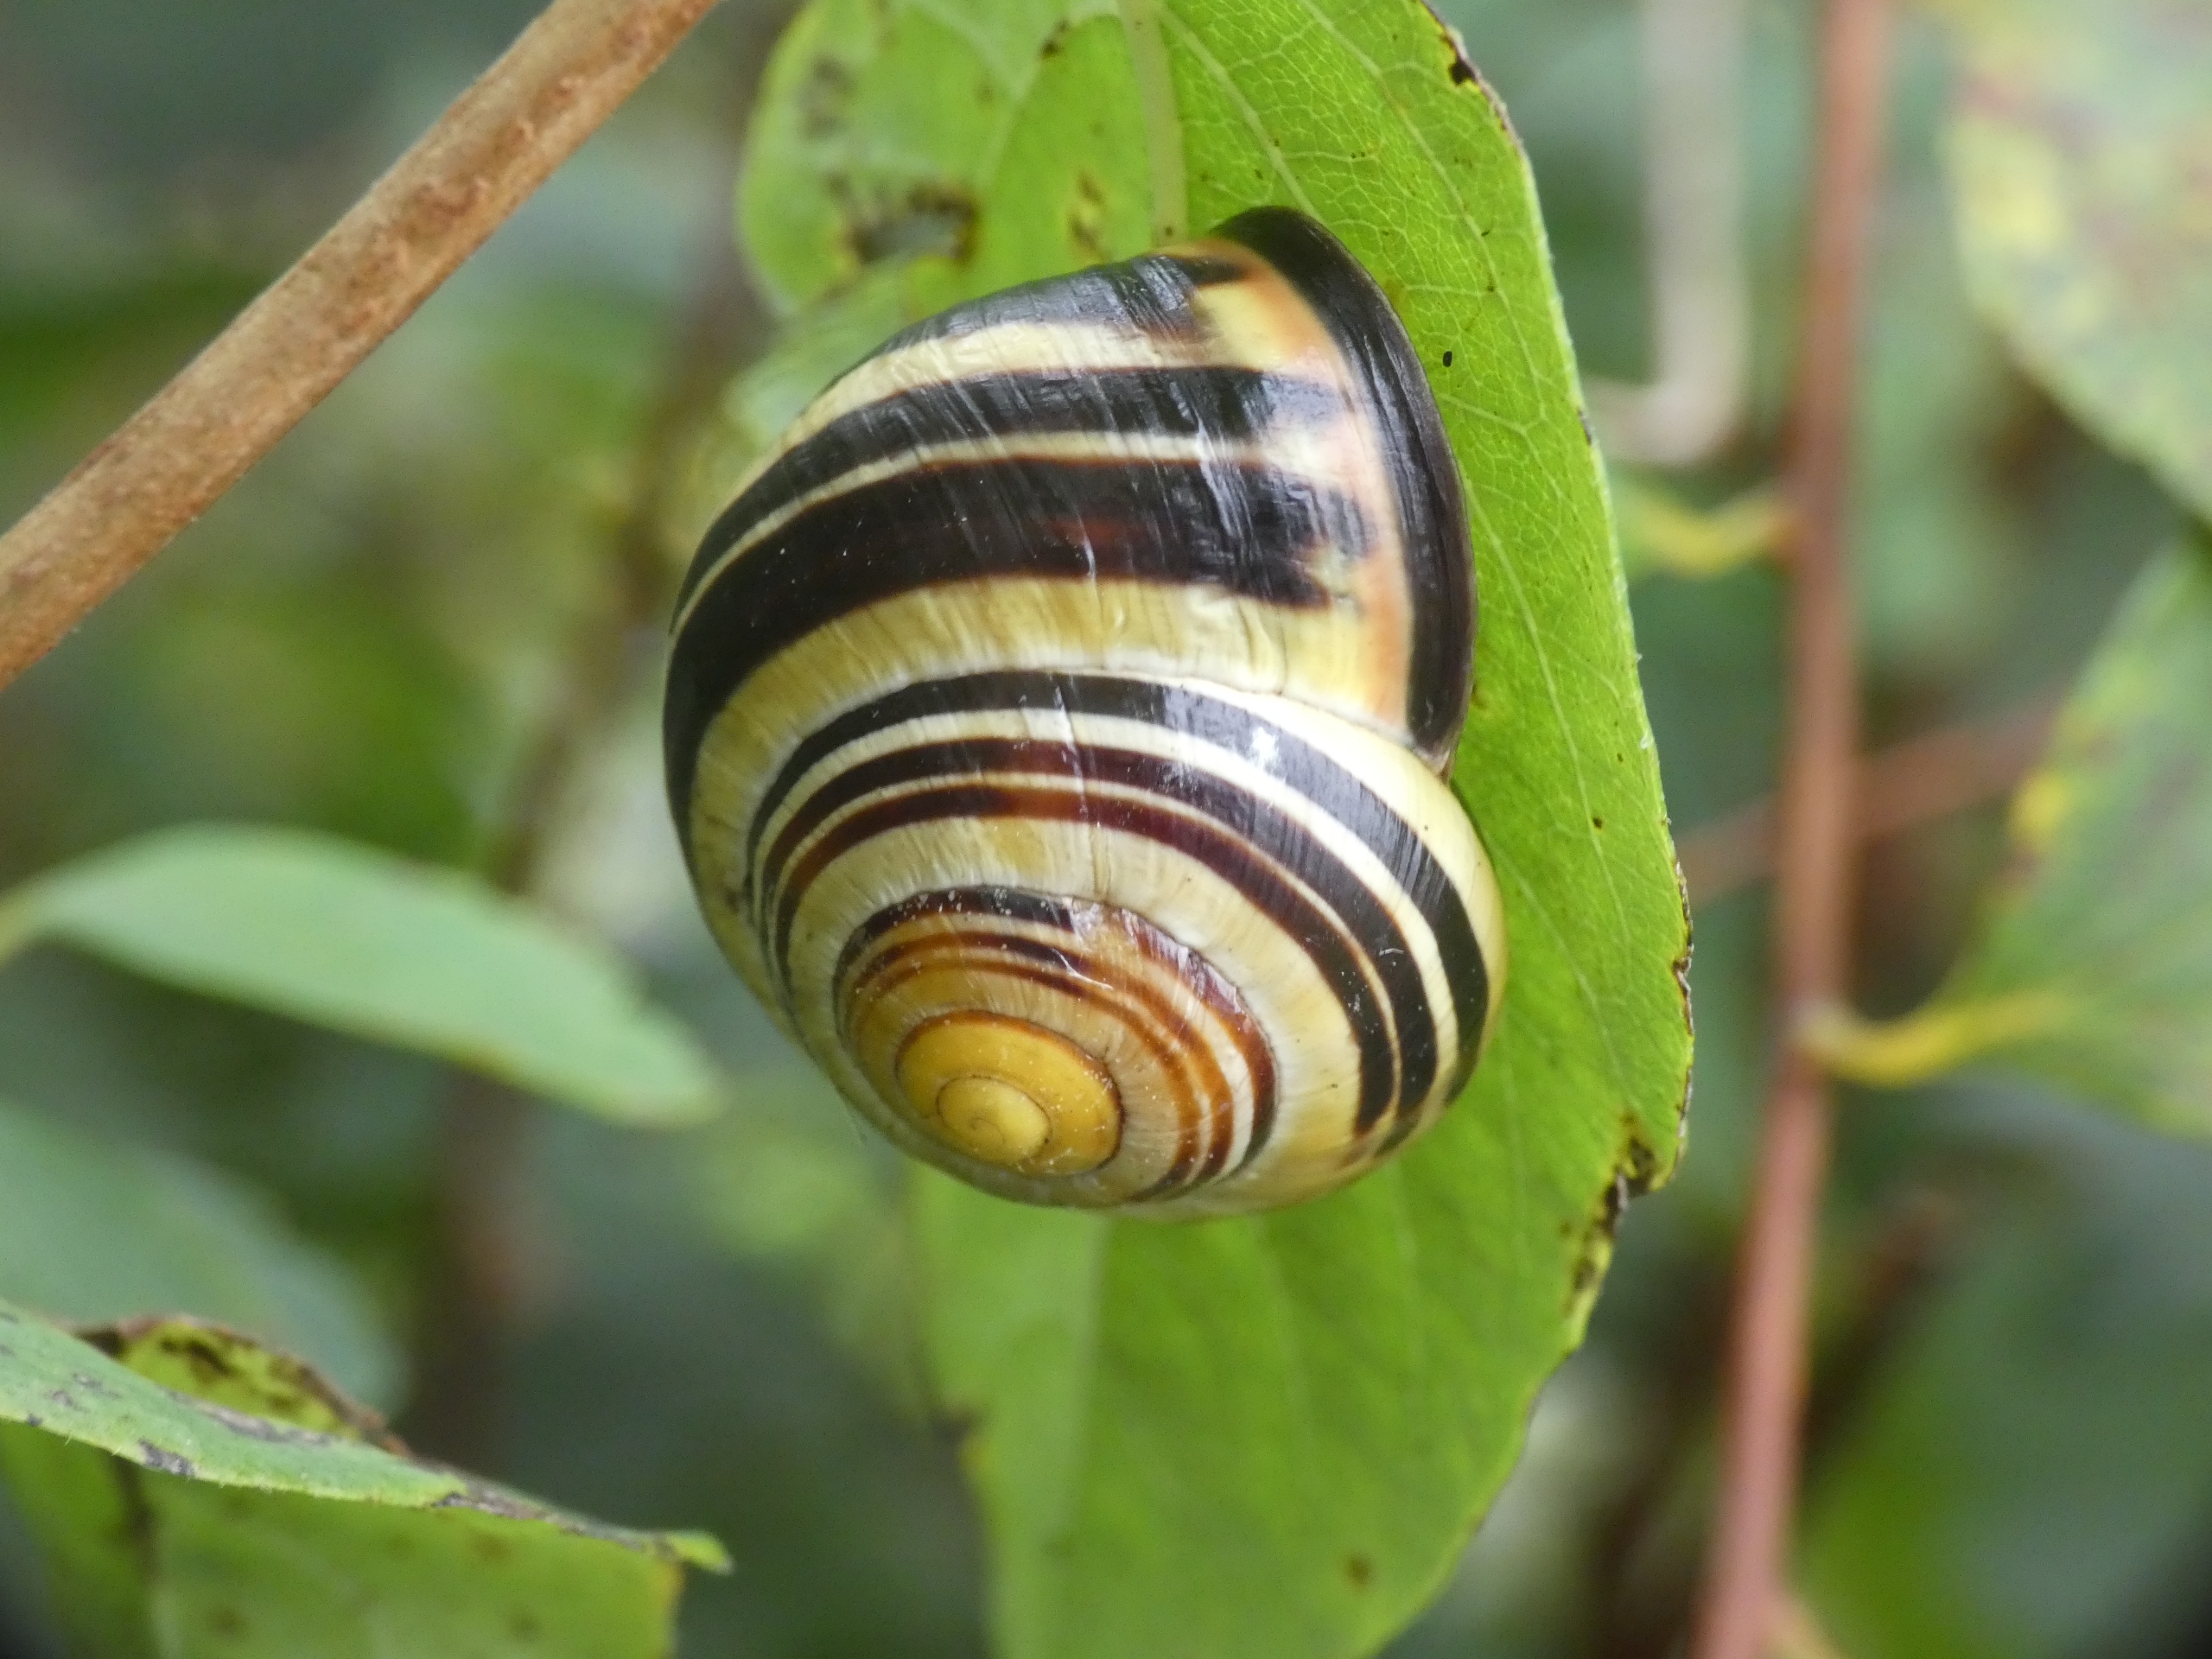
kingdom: Animalia
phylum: Mollusca
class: Gastropoda
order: Stylommatophora
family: Helicidae
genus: Cepaea
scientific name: Cepaea nemoralis
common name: Lundsnegl
